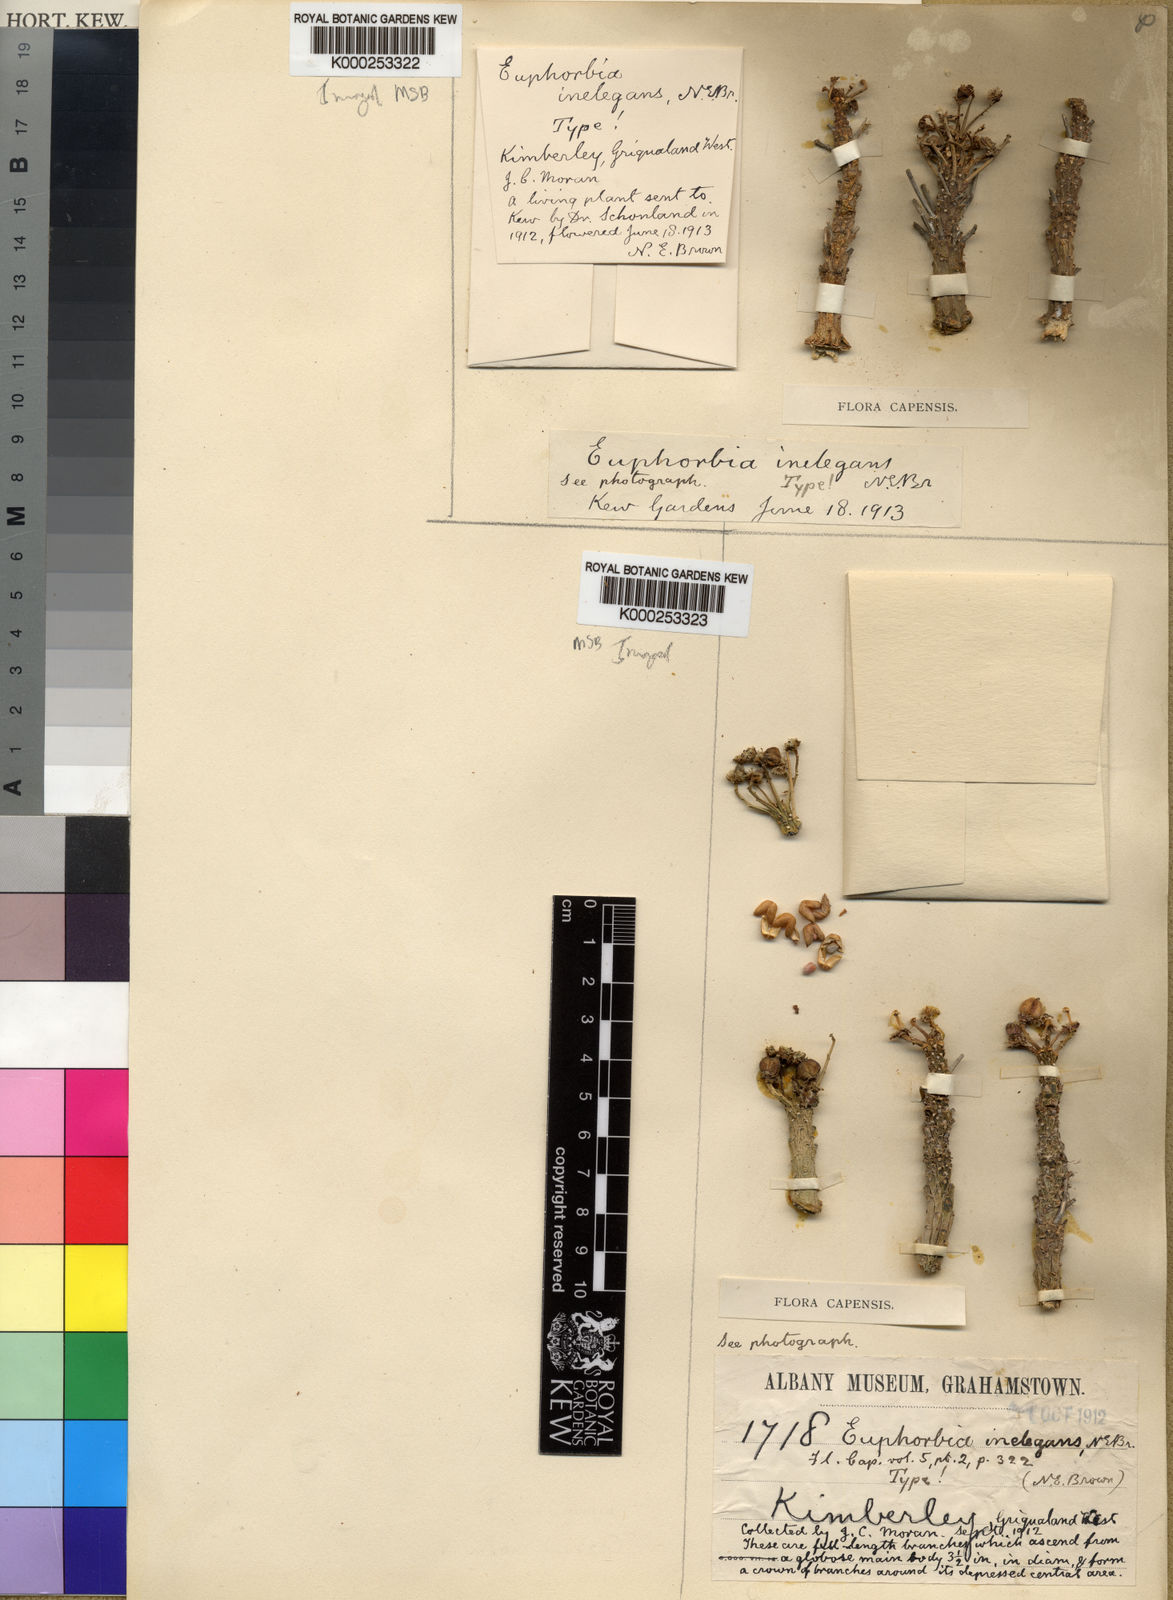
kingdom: Plantae
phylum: Tracheophyta
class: Magnoliopsida
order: Malpighiales
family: Euphorbiaceae
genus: Euphorbia
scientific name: Euphorbia crassipes
